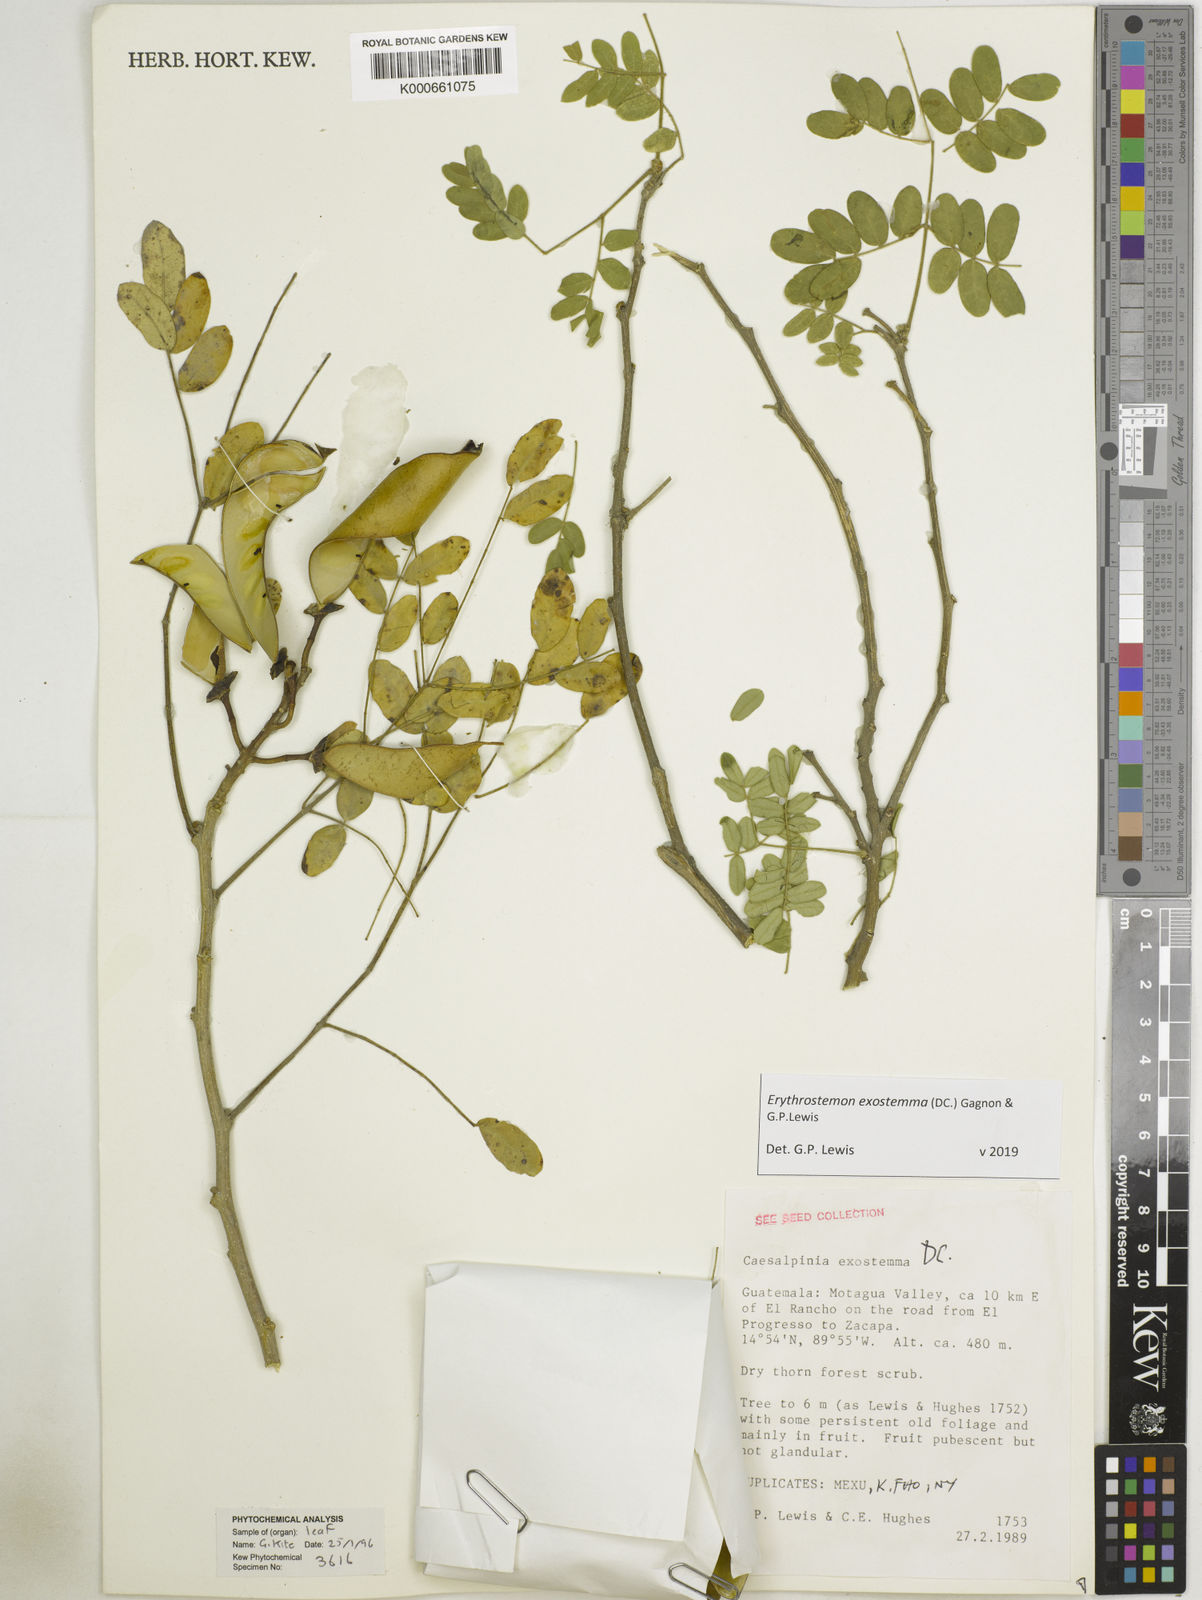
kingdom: Plantae
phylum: Tracheophyta
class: Magnoliopsida
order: Fabales
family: Fabaceae
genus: Erythrostemon
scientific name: Erythrostemon exostemma
